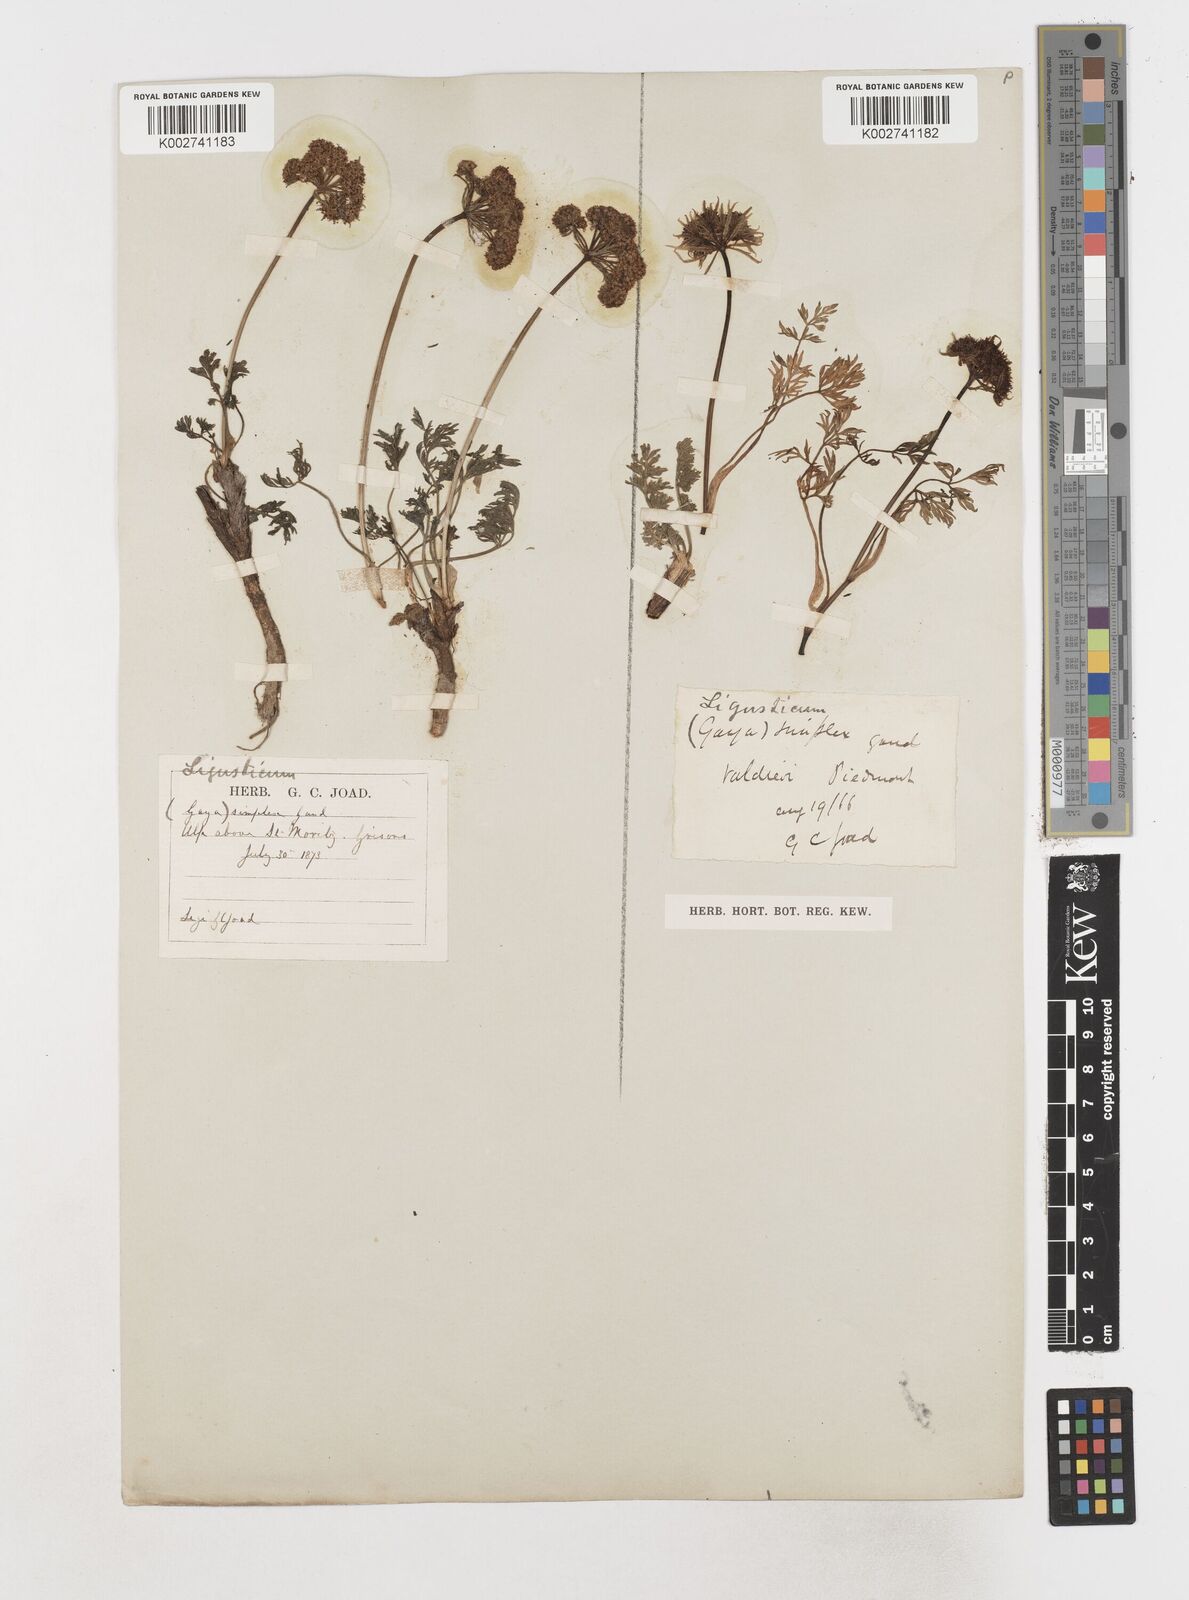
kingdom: Plantae
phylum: Tracheophyta
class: Magnoliopsida
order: Apiales
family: Apiaceae
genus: Pachypleurum
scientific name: Pachypleurum mutellinoides
